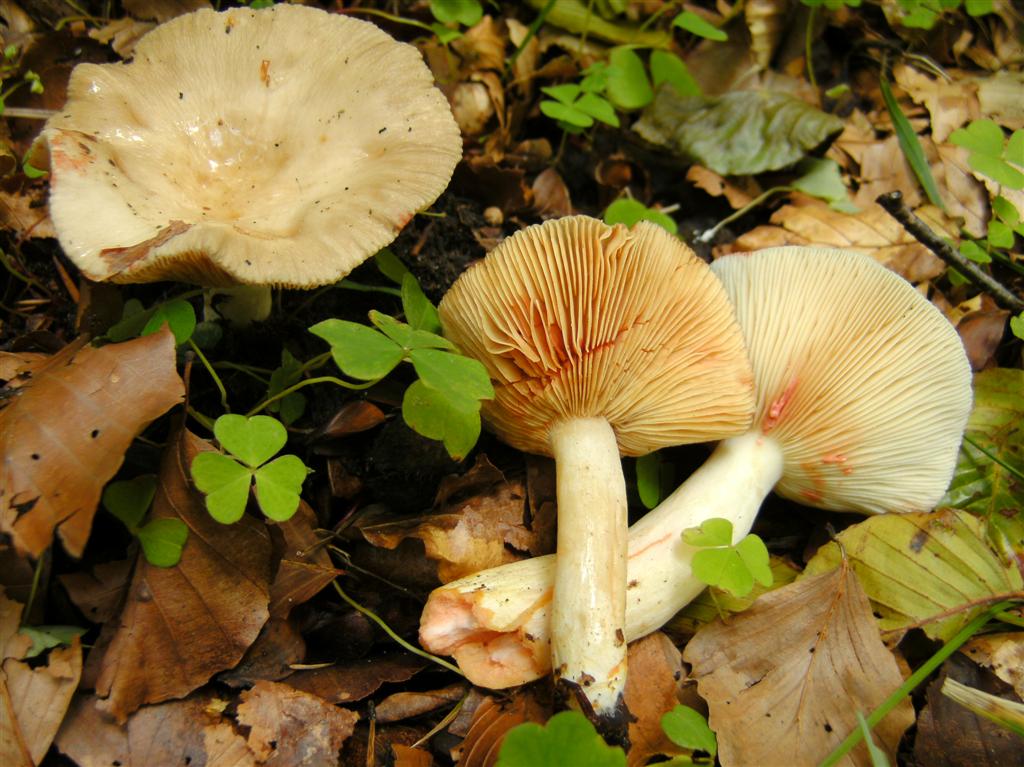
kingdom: Fungi
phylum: Basidiomycota
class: Agaricomycetes
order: Russulales
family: Russulaceae
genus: Lactarius
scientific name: Lactarius acris
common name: rosamælket mælkehat
